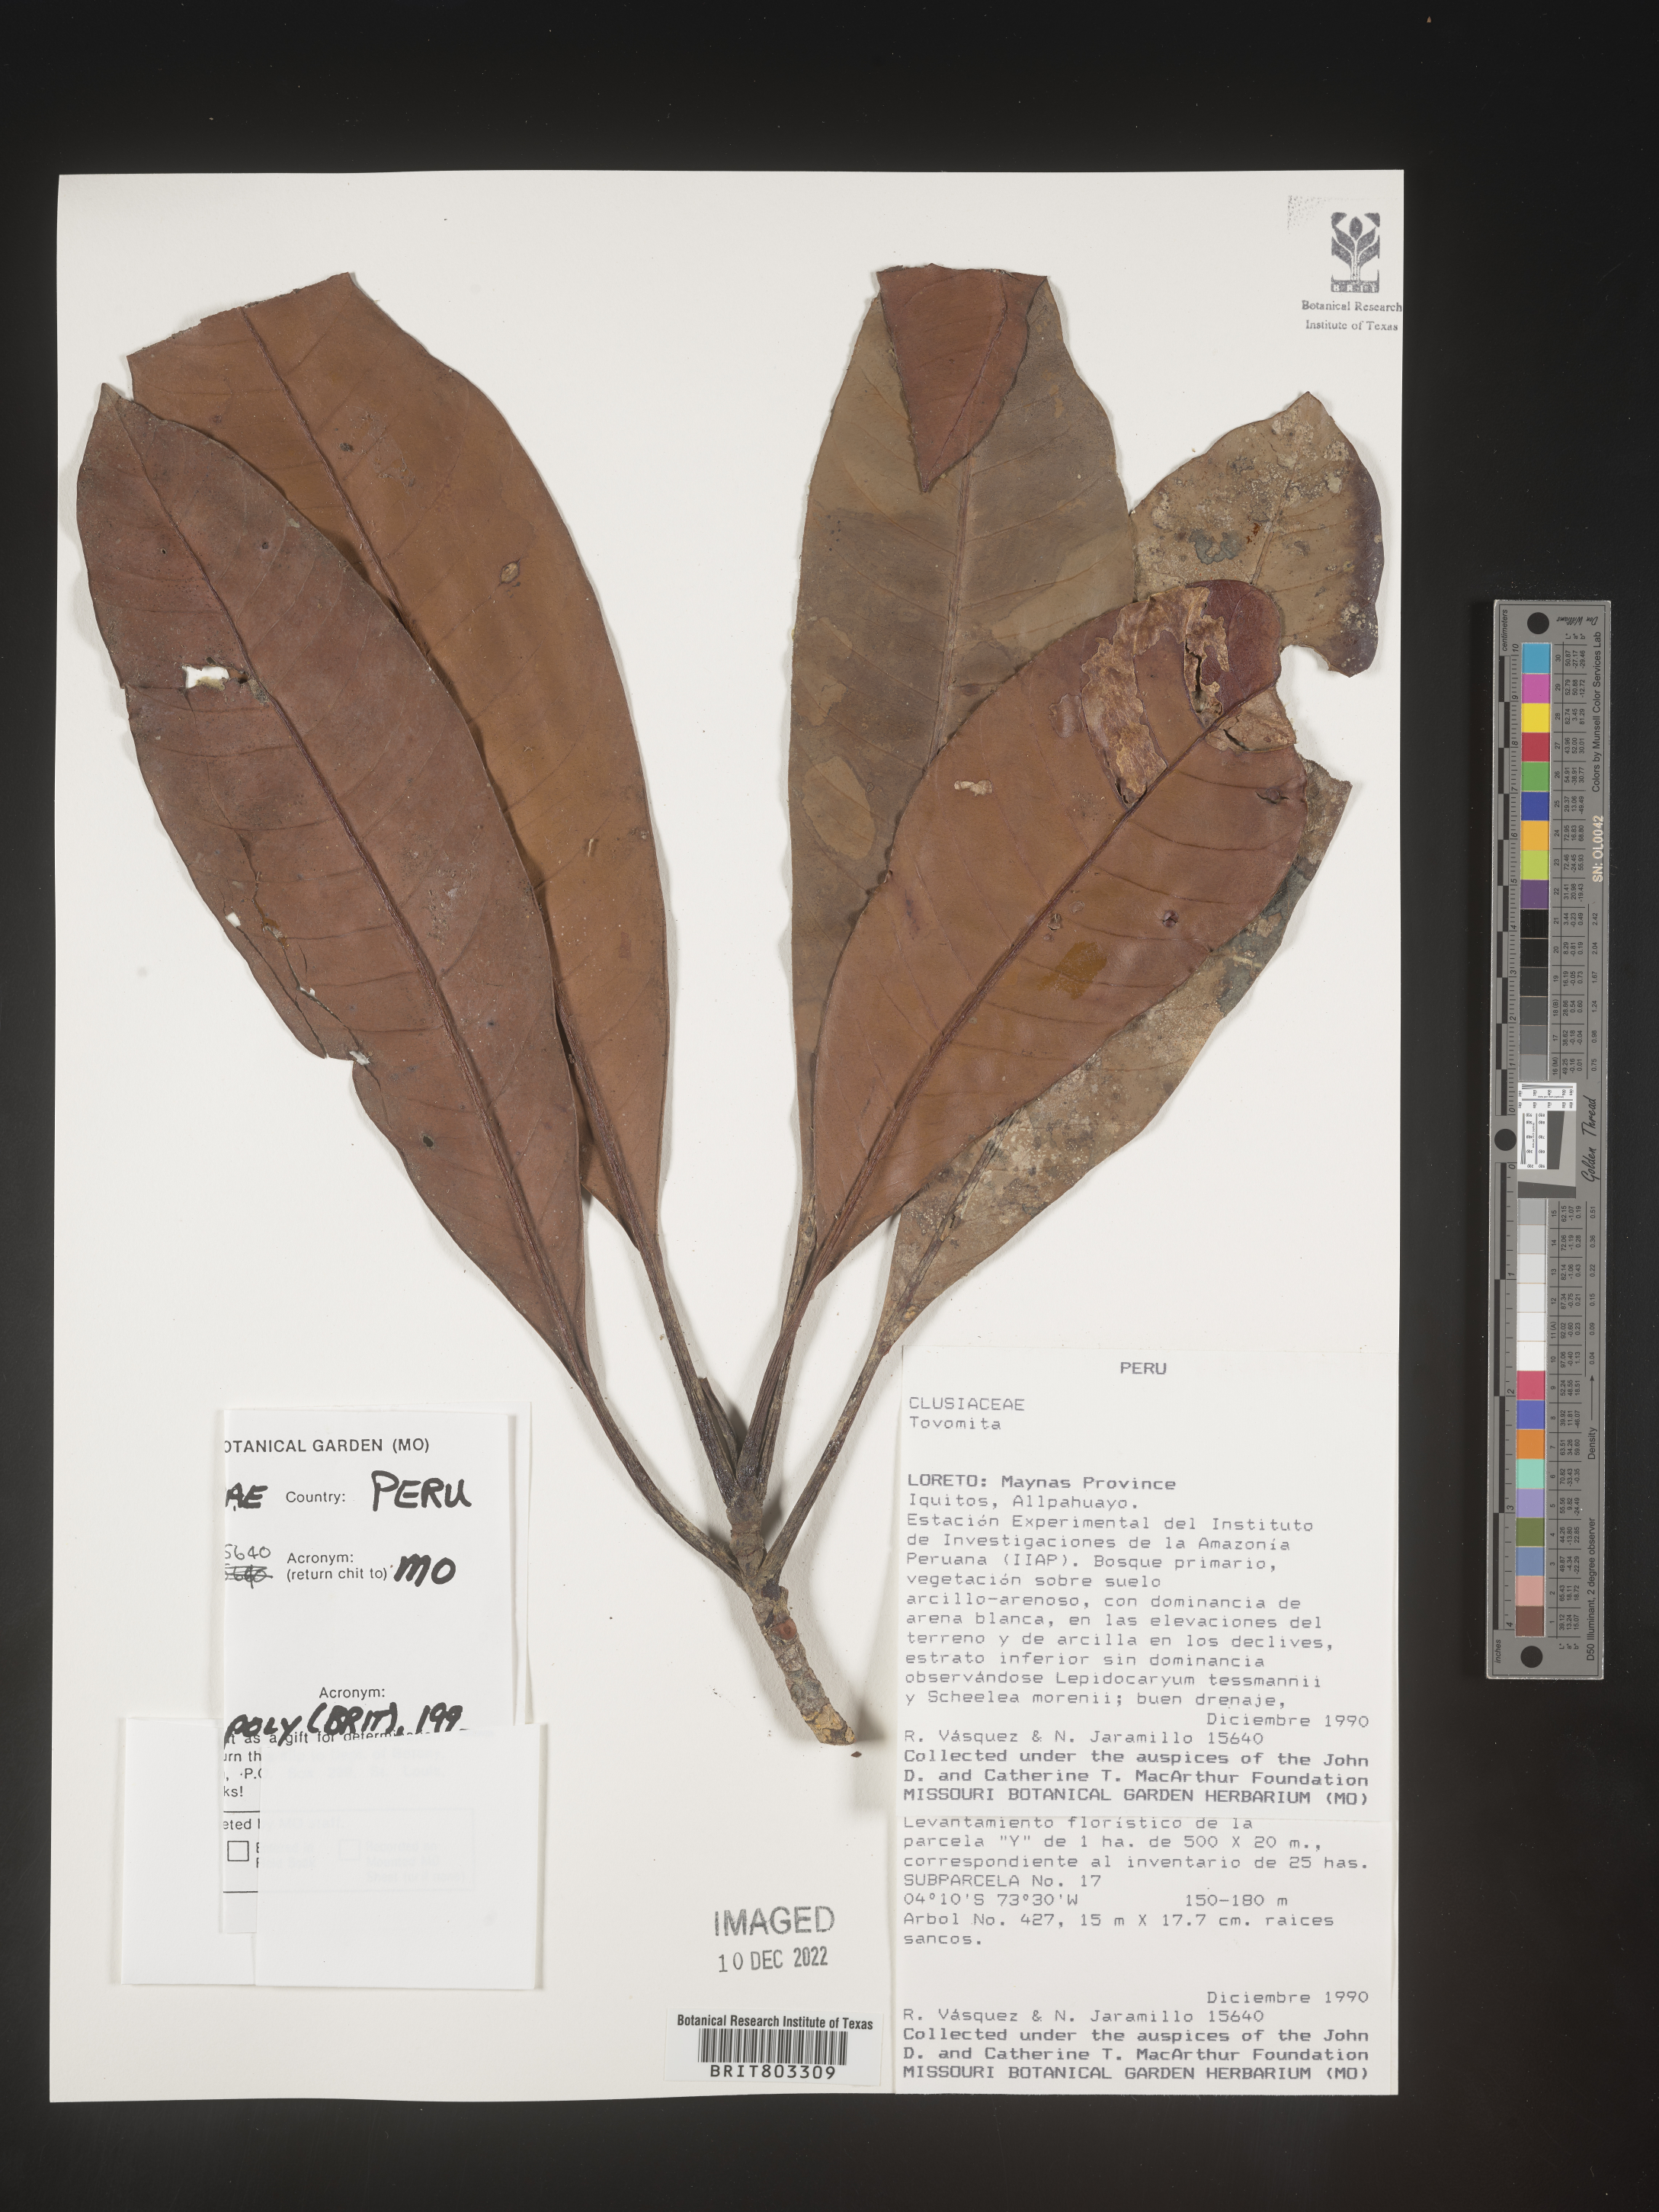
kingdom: Plantae
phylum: Tracheophyta
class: Magnoliopsida
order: Malpighiales
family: Clusiaceae
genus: Tovomita
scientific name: Tovomita
